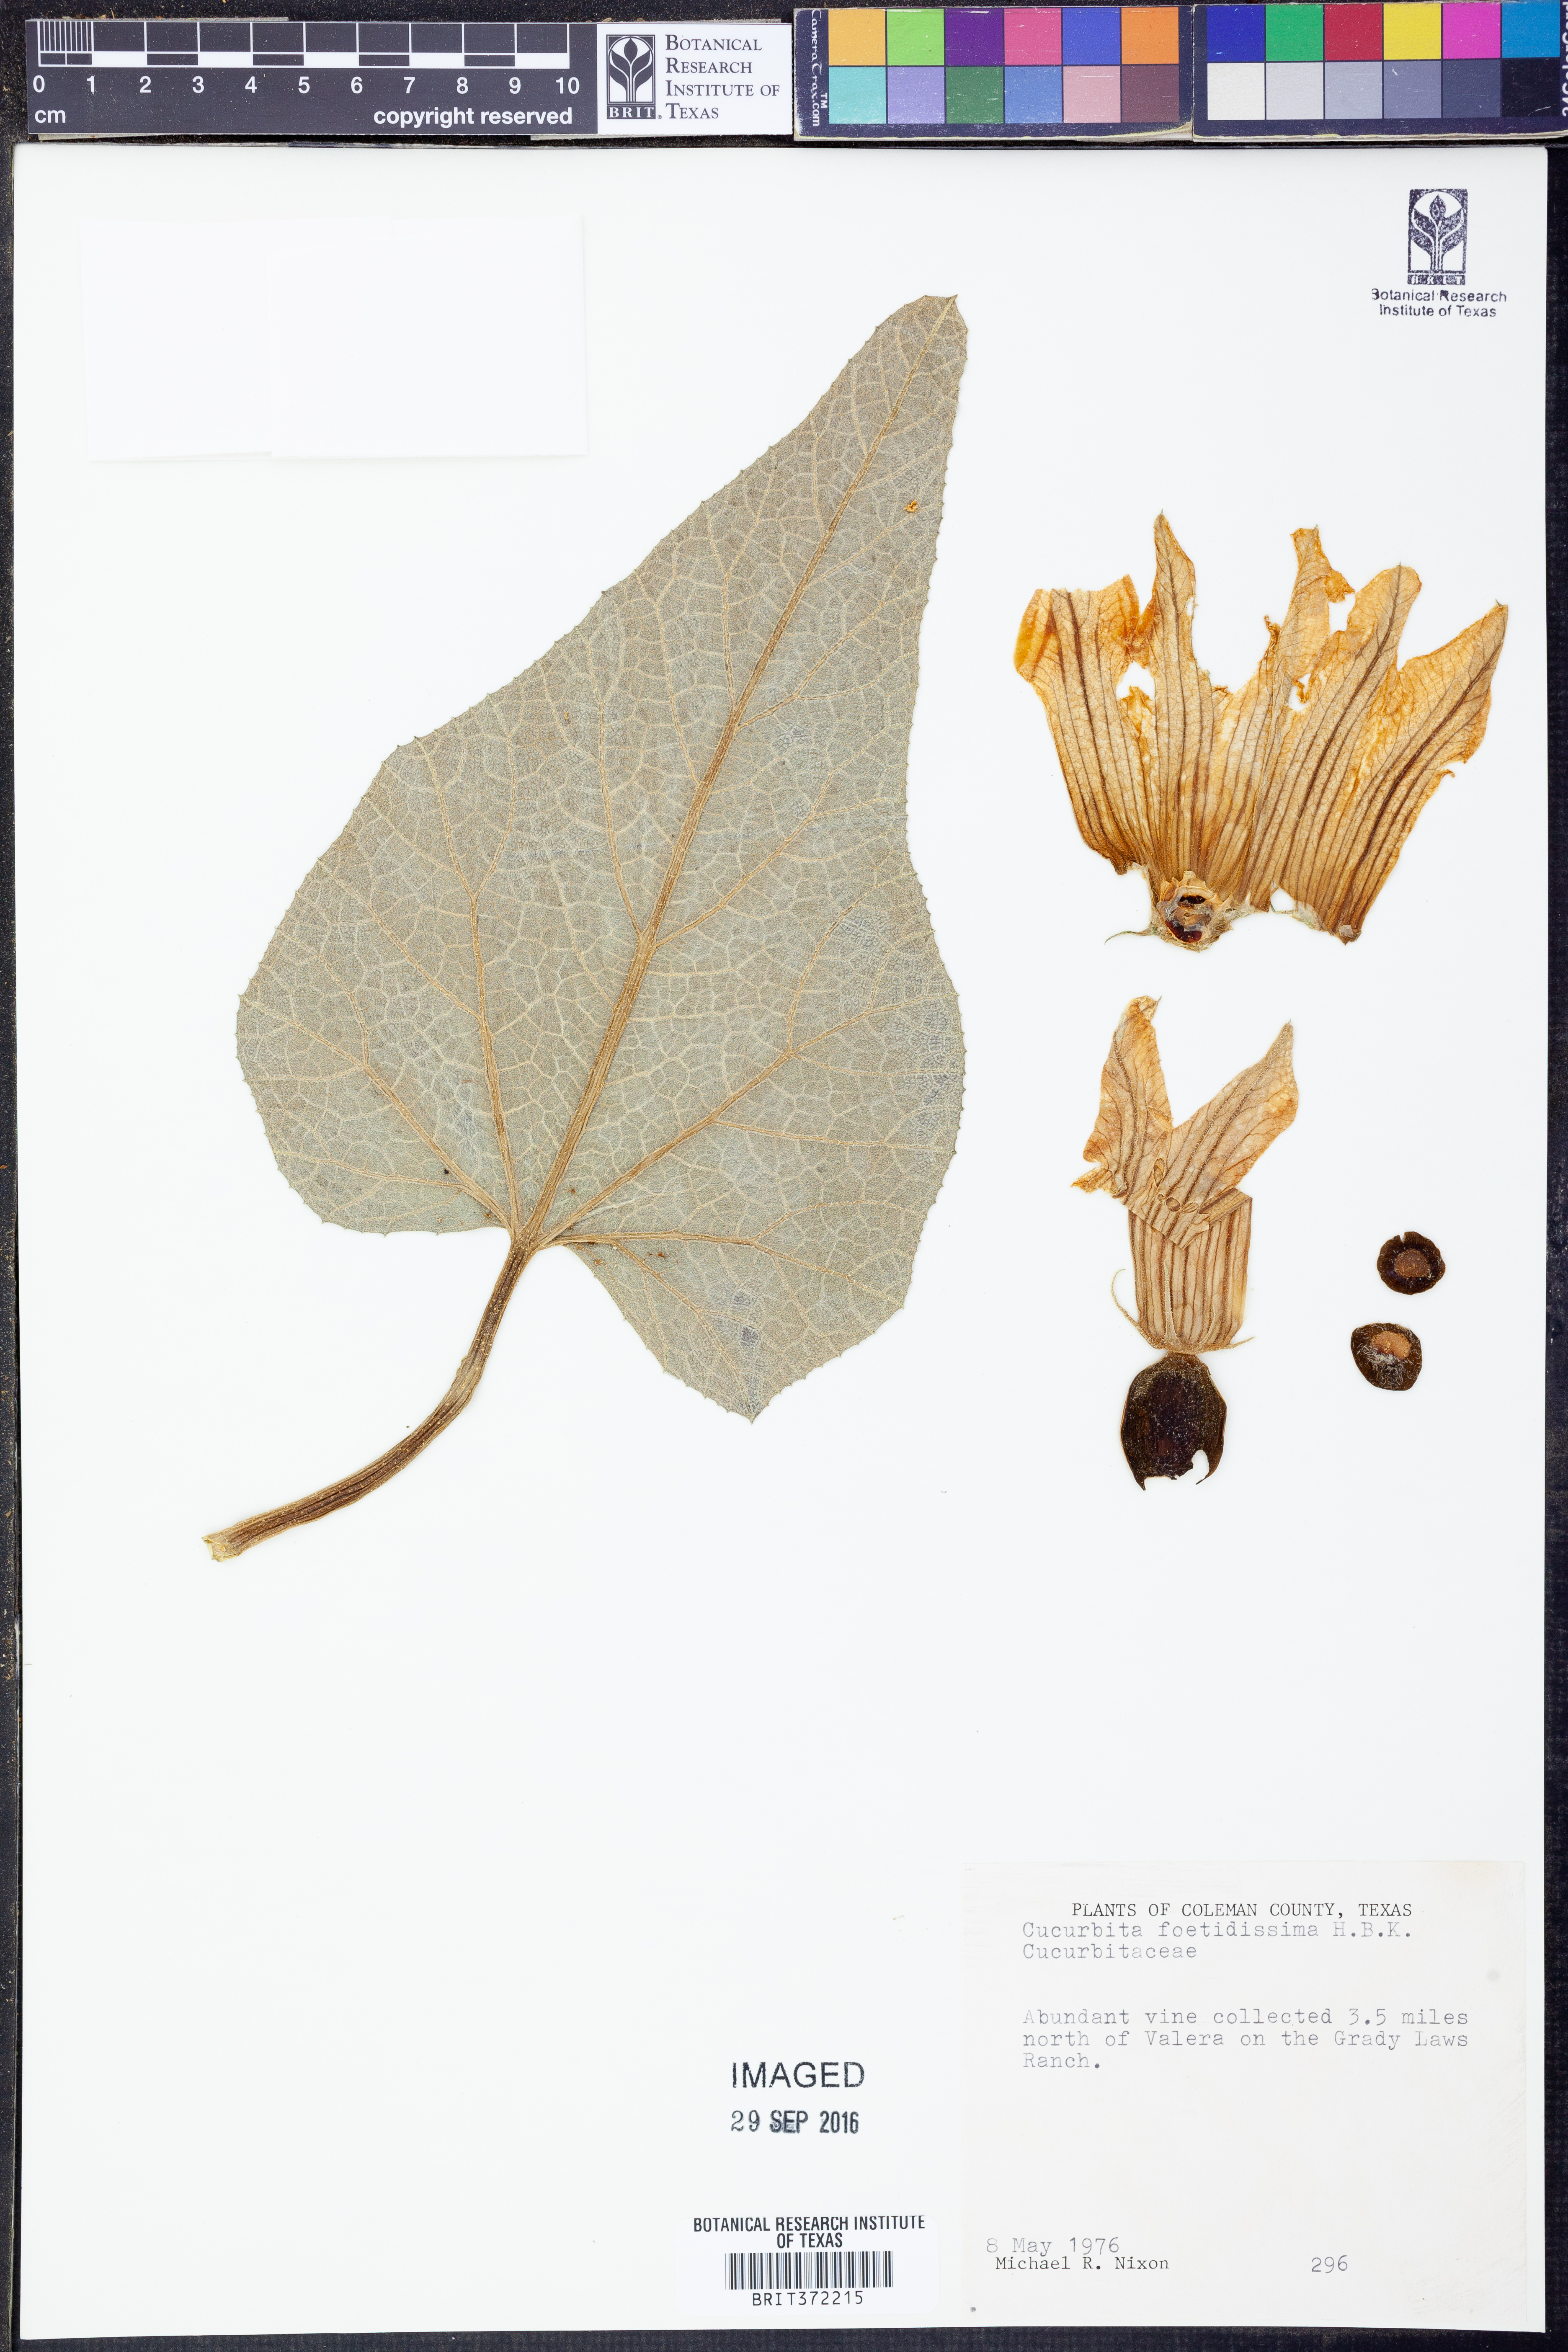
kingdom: Plantae
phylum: Tracheophyta
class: Magnoliopsida
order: Cucurbitales
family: Cucurbitaceae
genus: Cucurbita
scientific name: Cucurbita foetidissima
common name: Buffalo gourd
